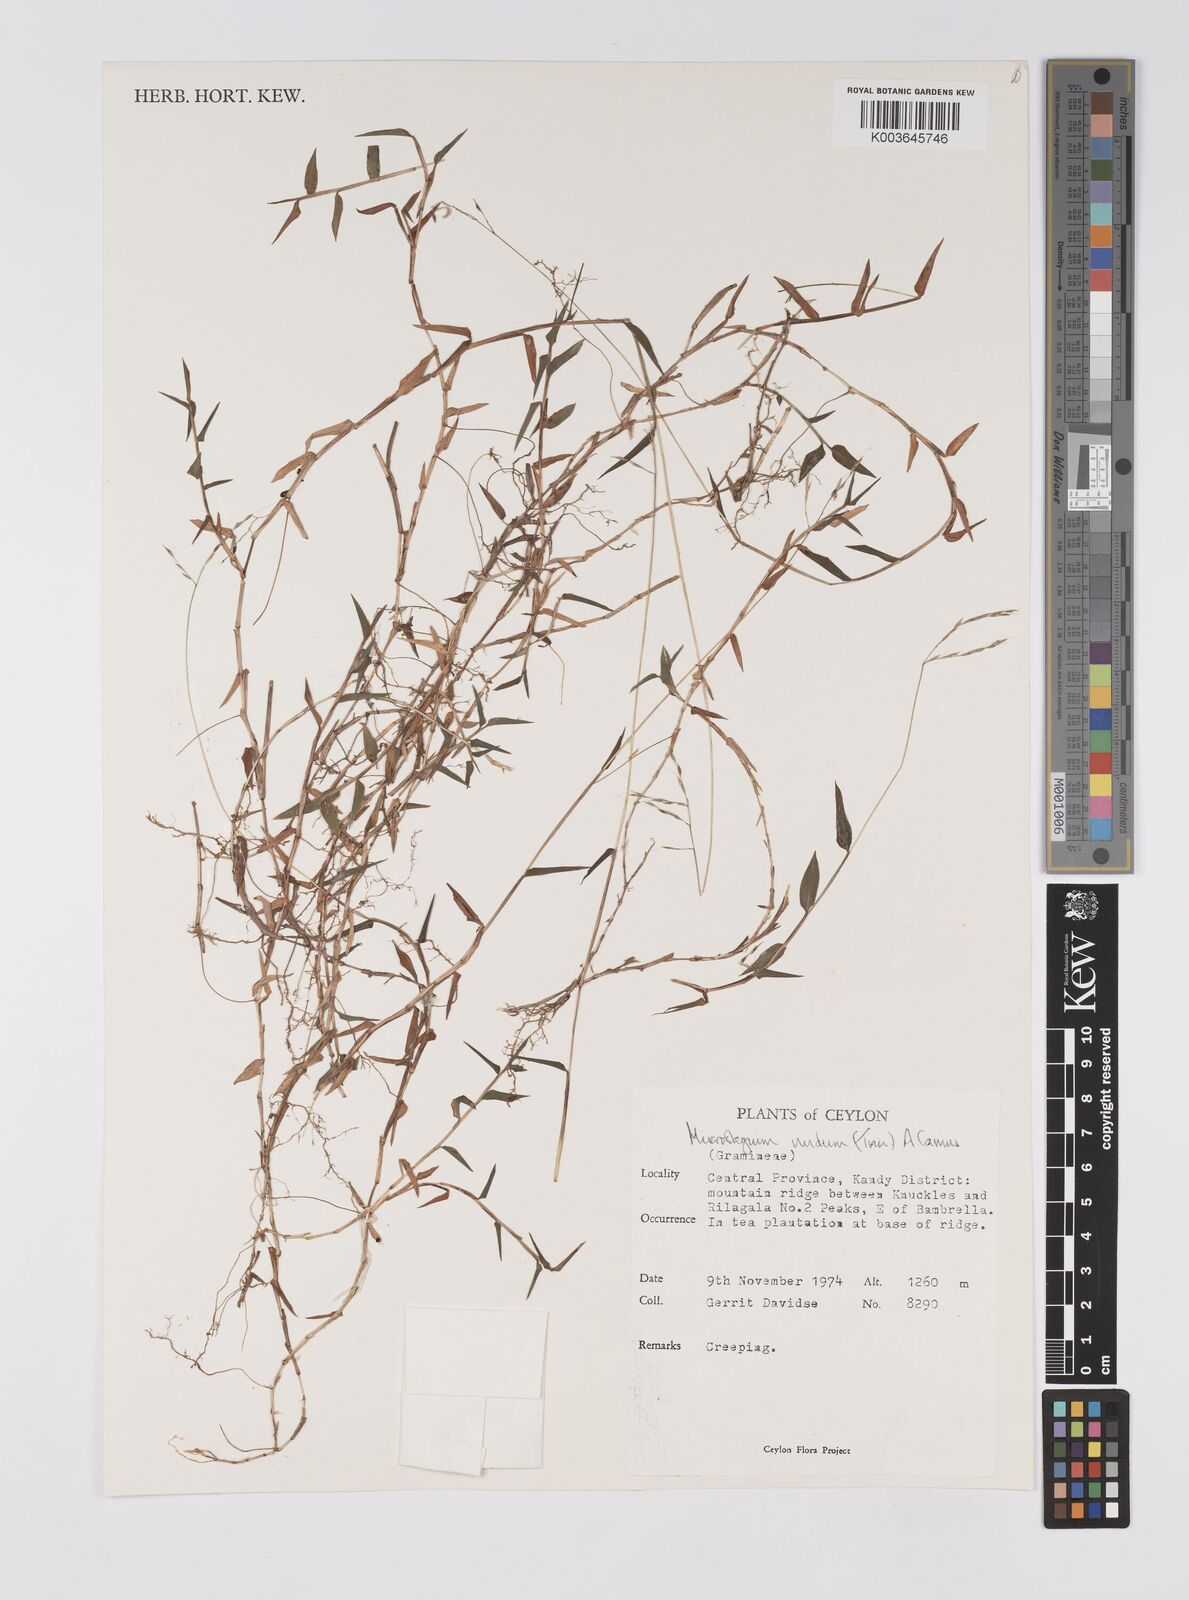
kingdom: Plantae
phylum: Tracheophyta
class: Liliopsida
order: Poales
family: Poaceae
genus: Microstegium
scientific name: Microstegium nudum
